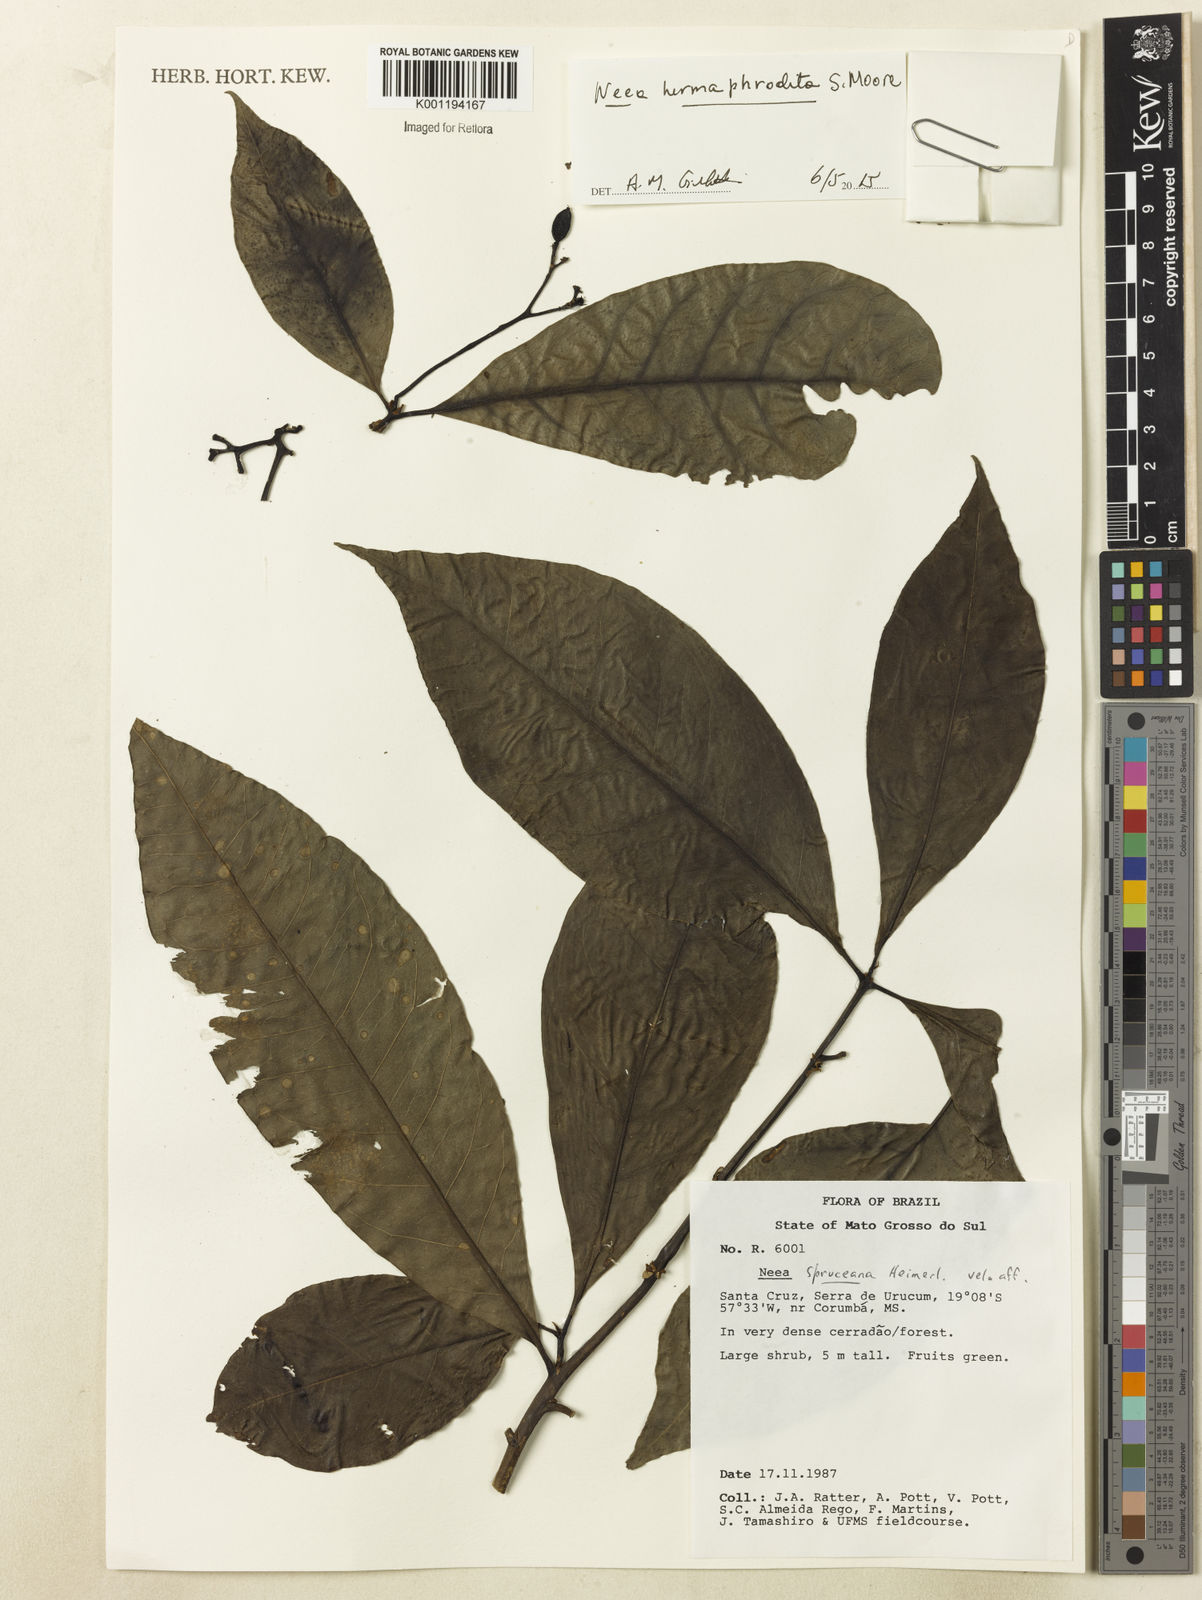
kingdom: Plantae
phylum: Tracheophyta
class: Magnoliopsida
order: Caryophyllales
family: Nyctaginaceae
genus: Neea
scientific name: Neea hermaphrodita
